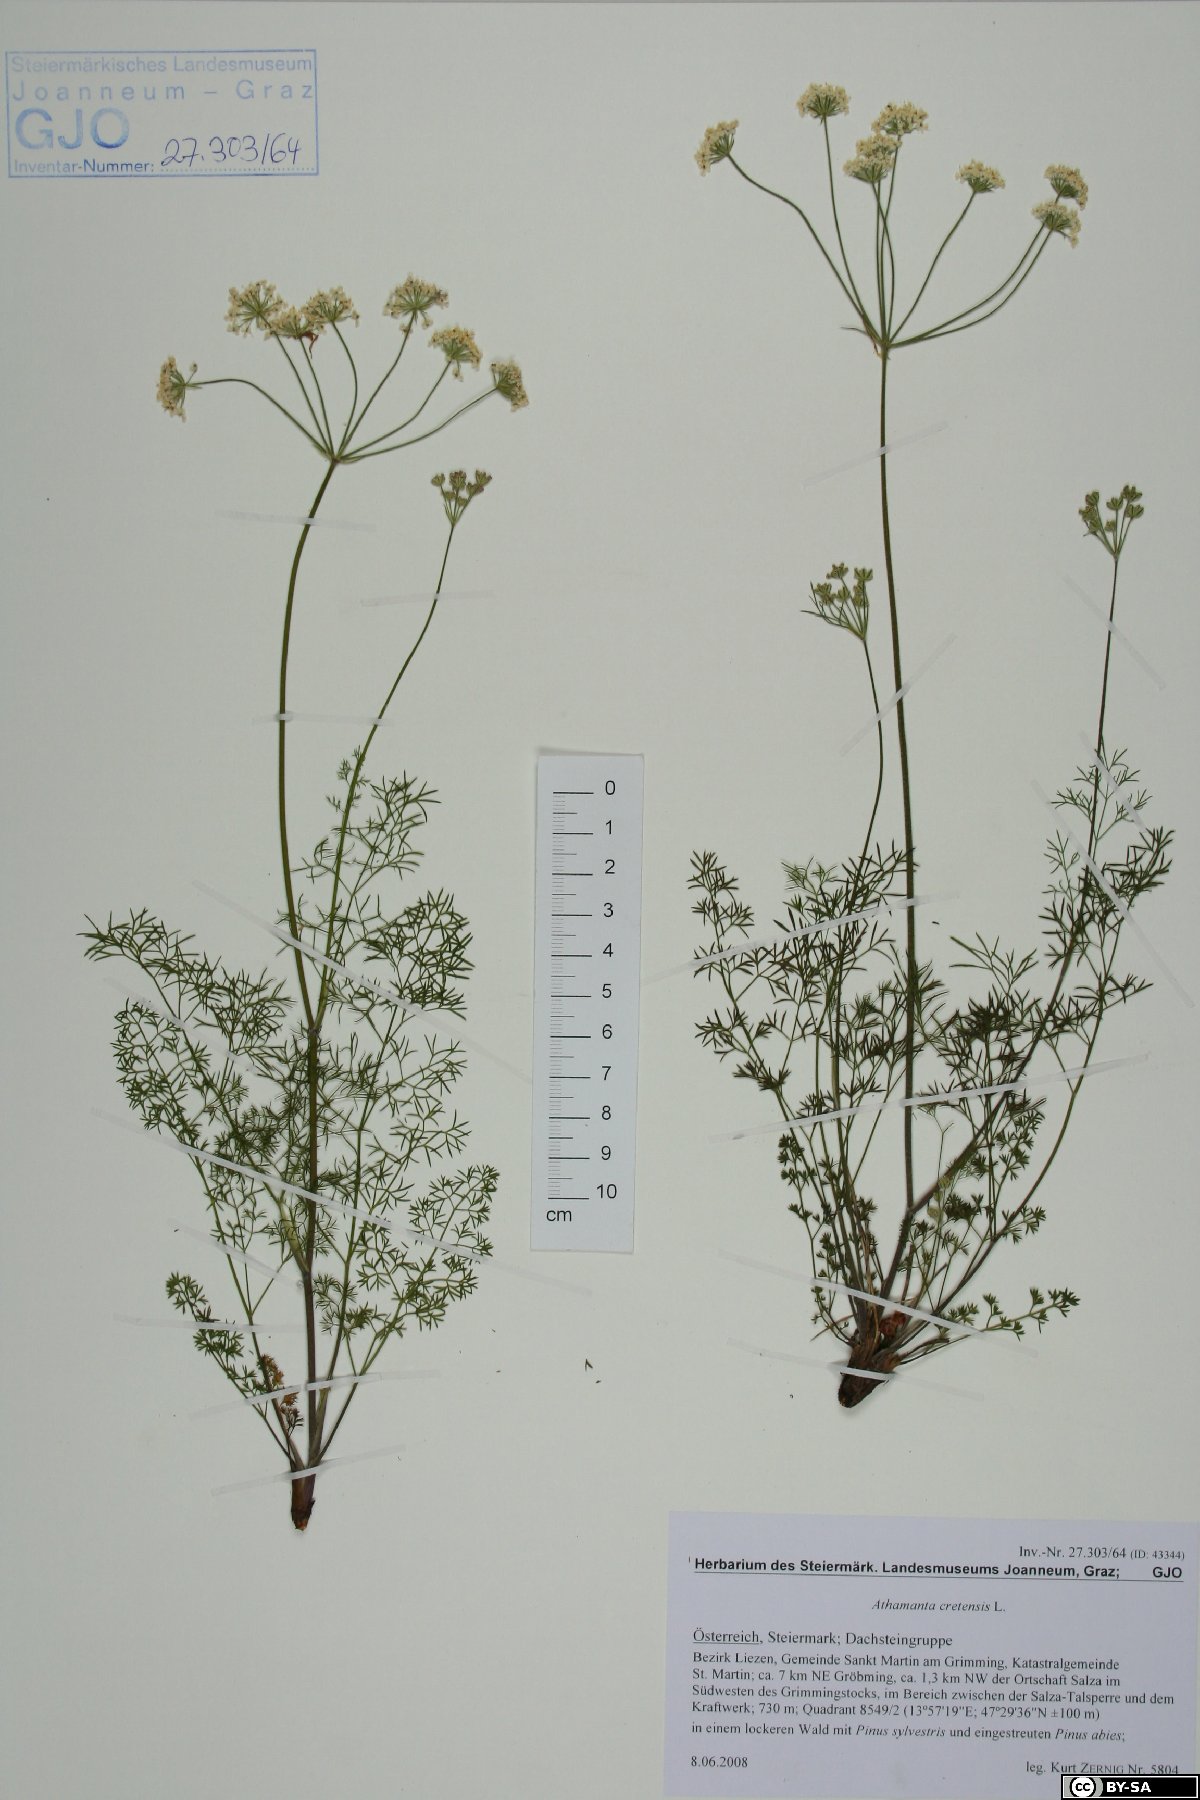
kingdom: Plantae
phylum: Tracheophyta
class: Magnoliopsida
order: Apiales
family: Apiaceae
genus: Athamanta
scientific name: Athamanta cretensis
